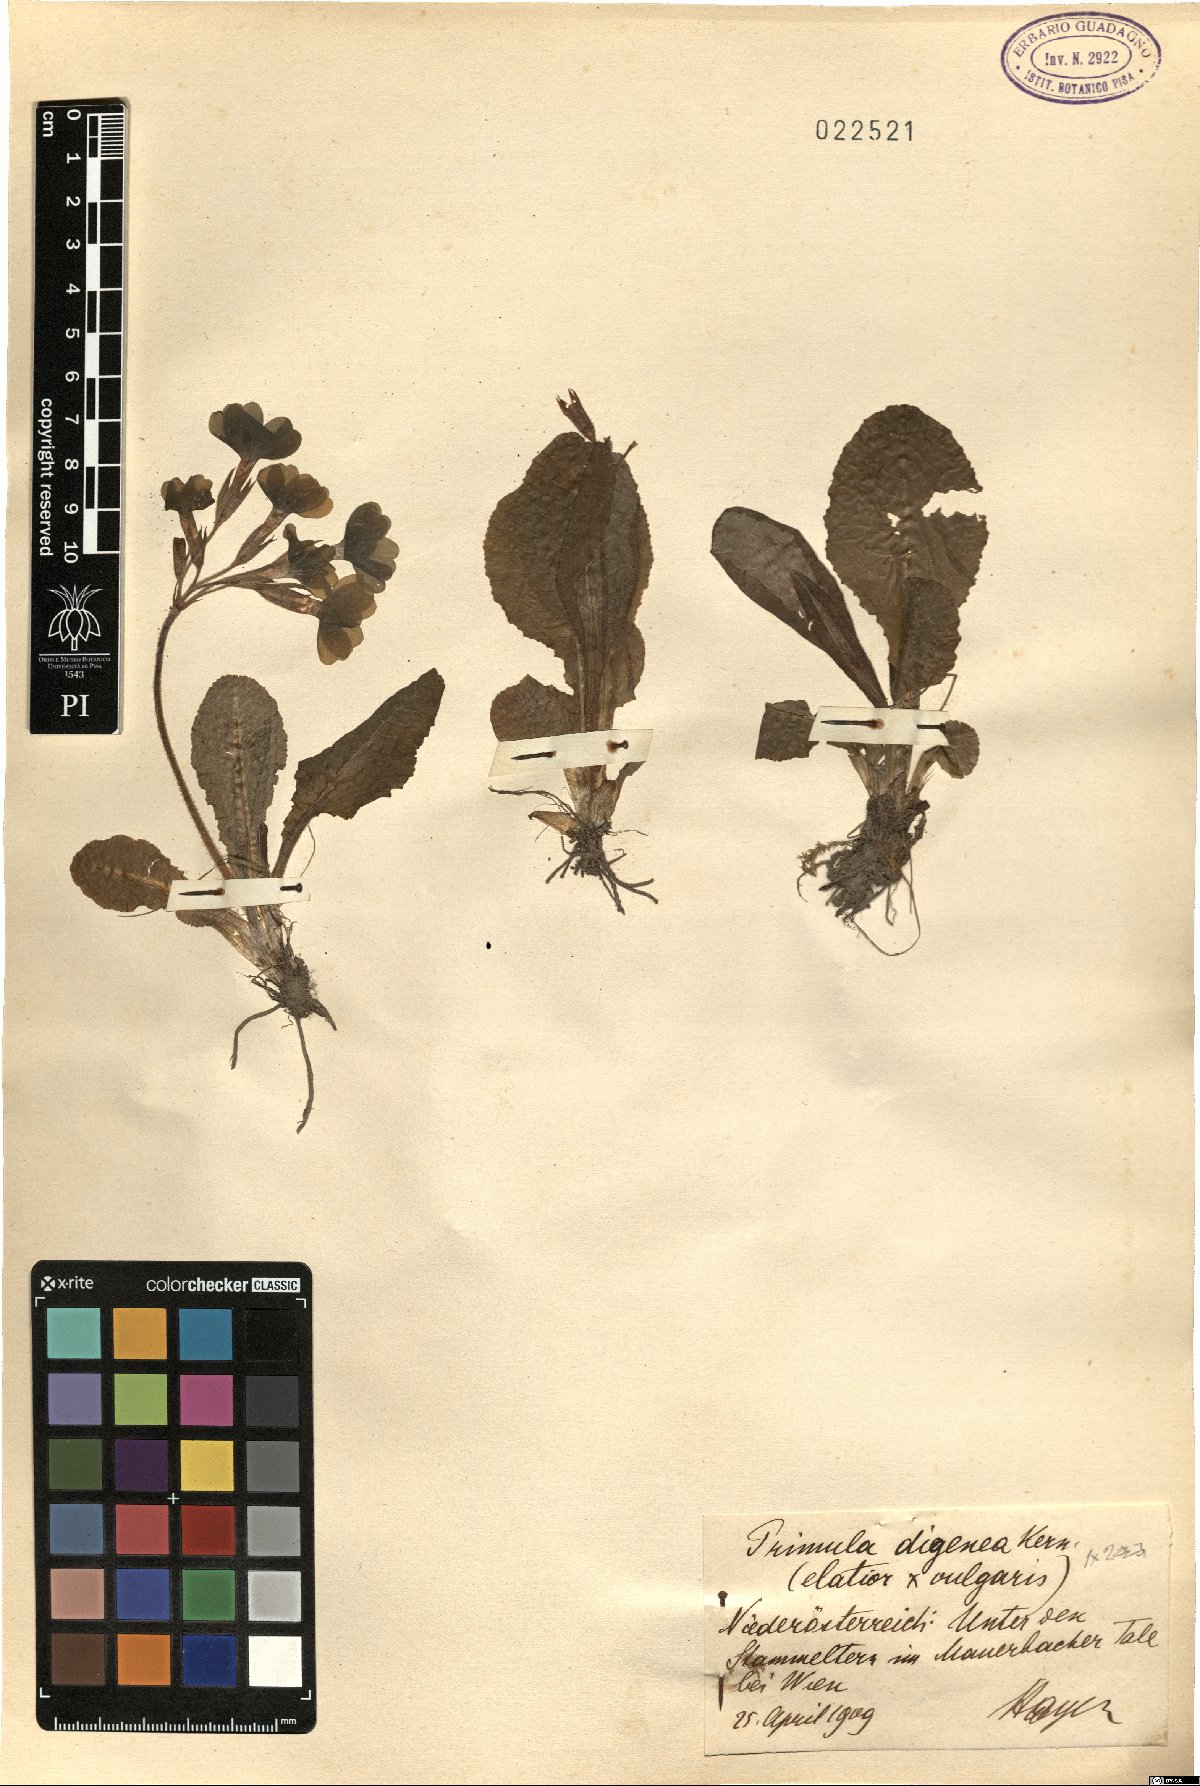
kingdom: Plantae
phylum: Tracheophyta
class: Magnoliopsida
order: Ericales
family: Primulaceae
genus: Primula
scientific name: Primula digenea
